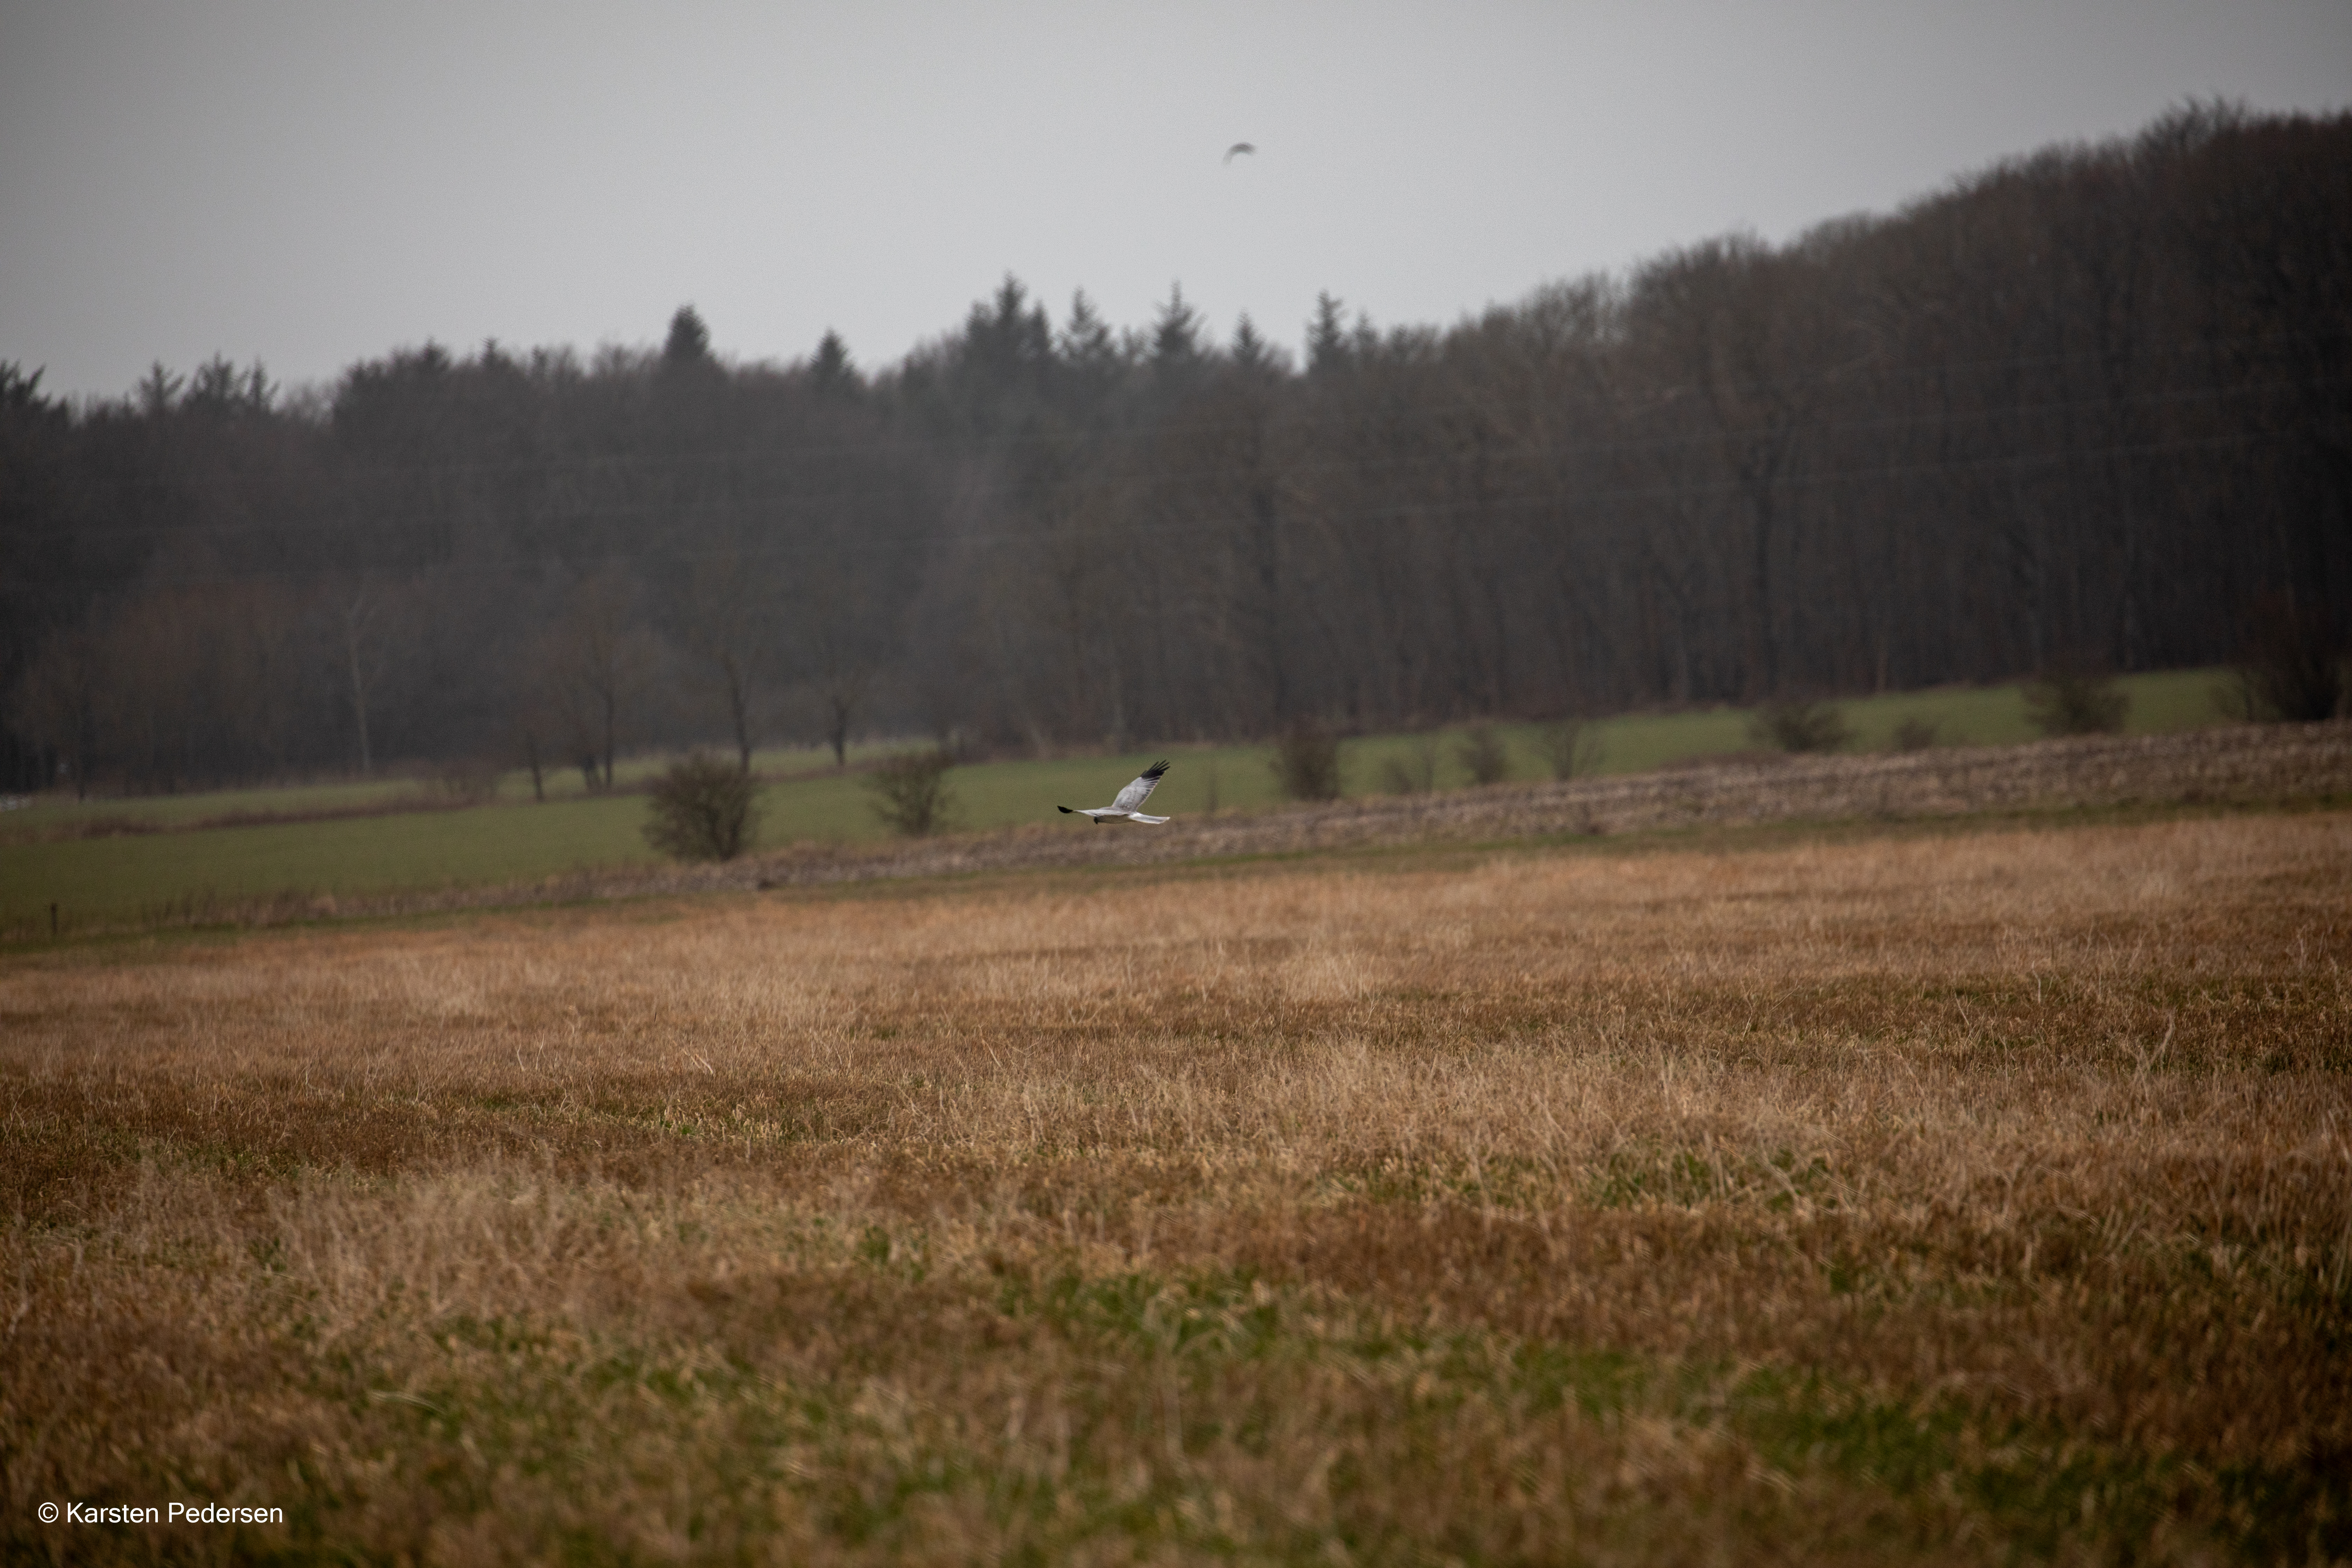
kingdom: Animalia
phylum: Chordata
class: Aves
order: Accipitriformes
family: Accipitridae
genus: Circus
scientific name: Circus cyaneus
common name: Blå kærhøg
